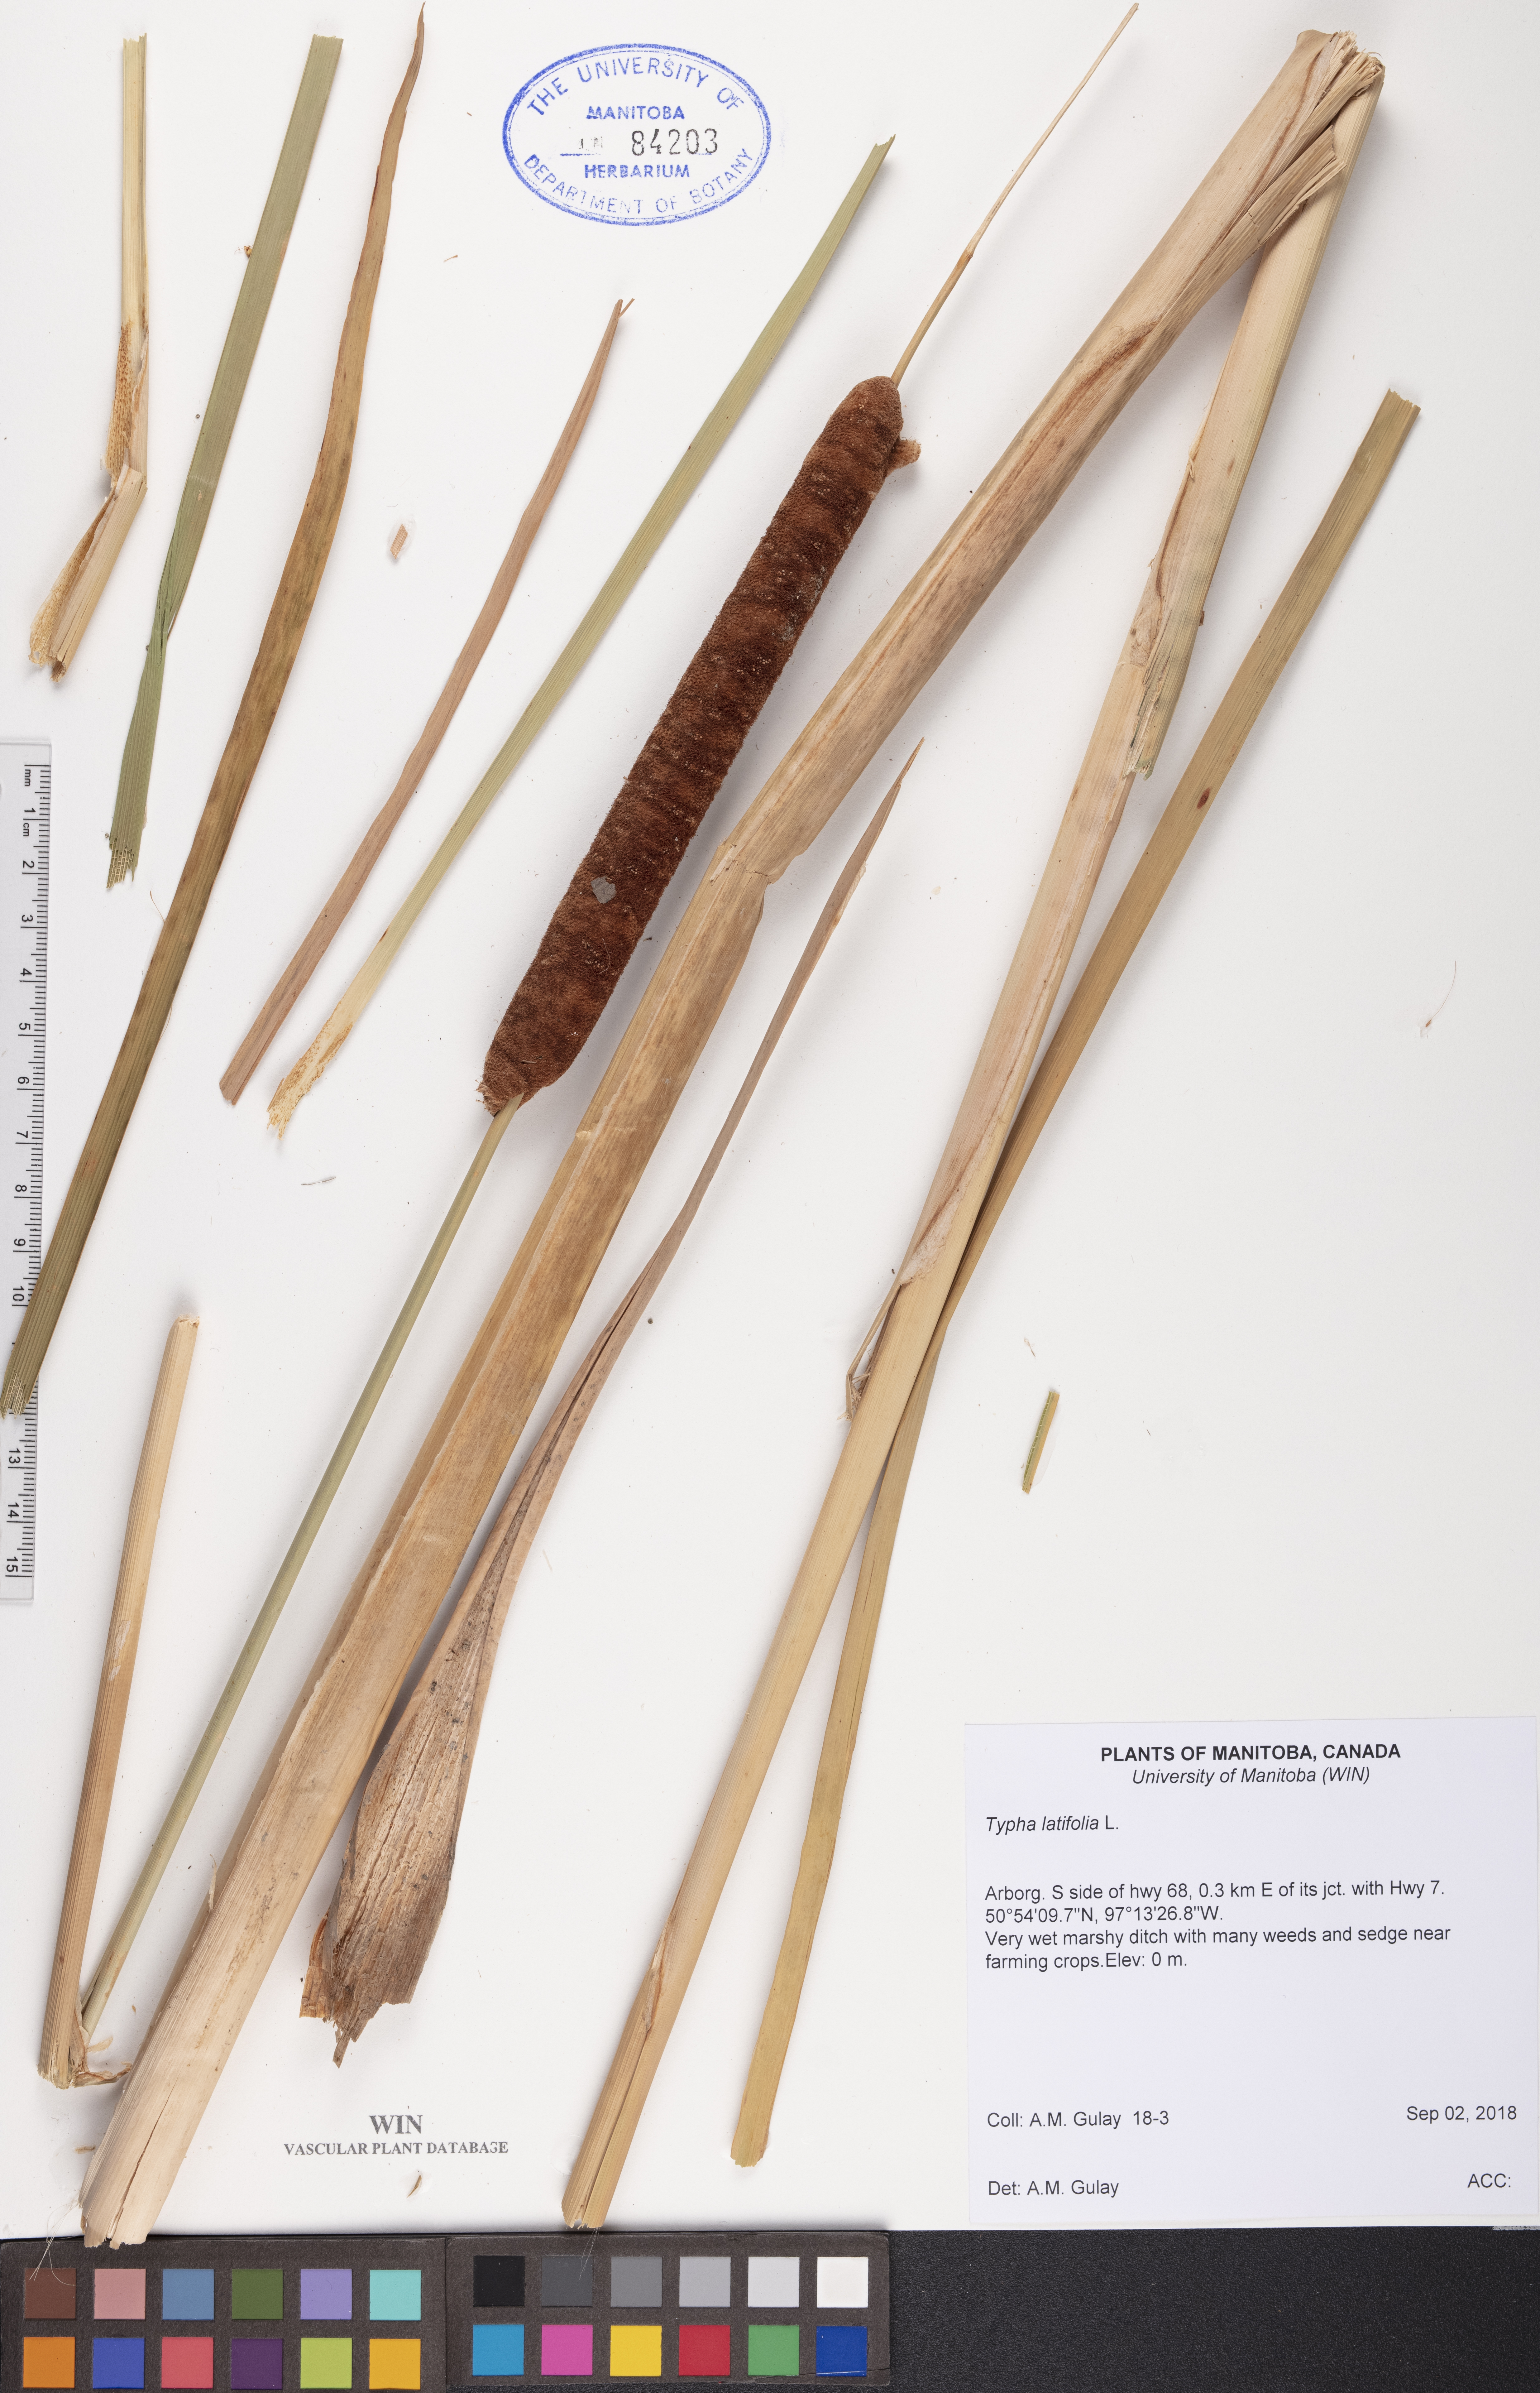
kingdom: Plantae
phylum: Tracheophyta
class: Liliopsida
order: Poales
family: Typhaceae
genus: Typha
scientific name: Typha latifolia
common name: Broadleaf cattail
